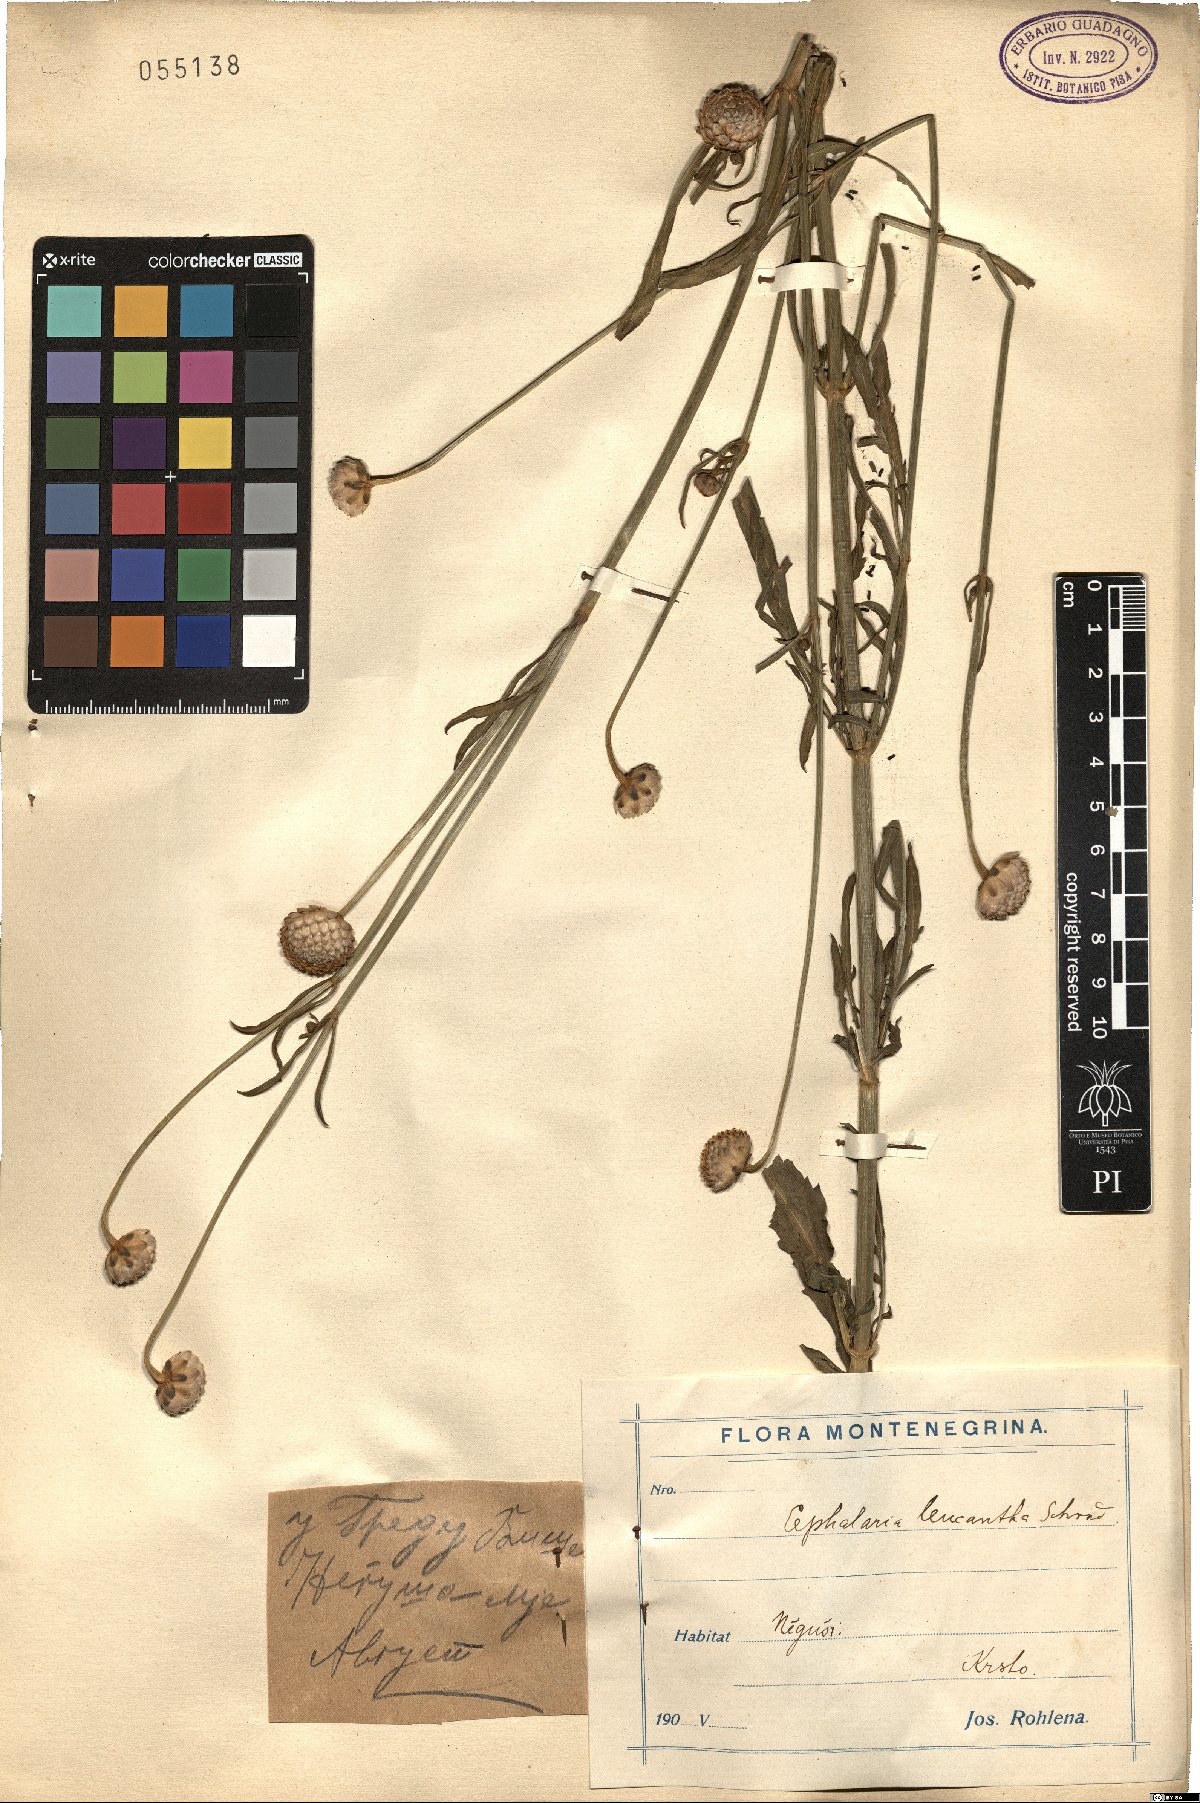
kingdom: Plantae
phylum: Tracheophyta
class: Magnoliopsida
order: Dipsacales
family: Caprifoliaceae
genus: Cephalaria
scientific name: Cephalaria leucantha
